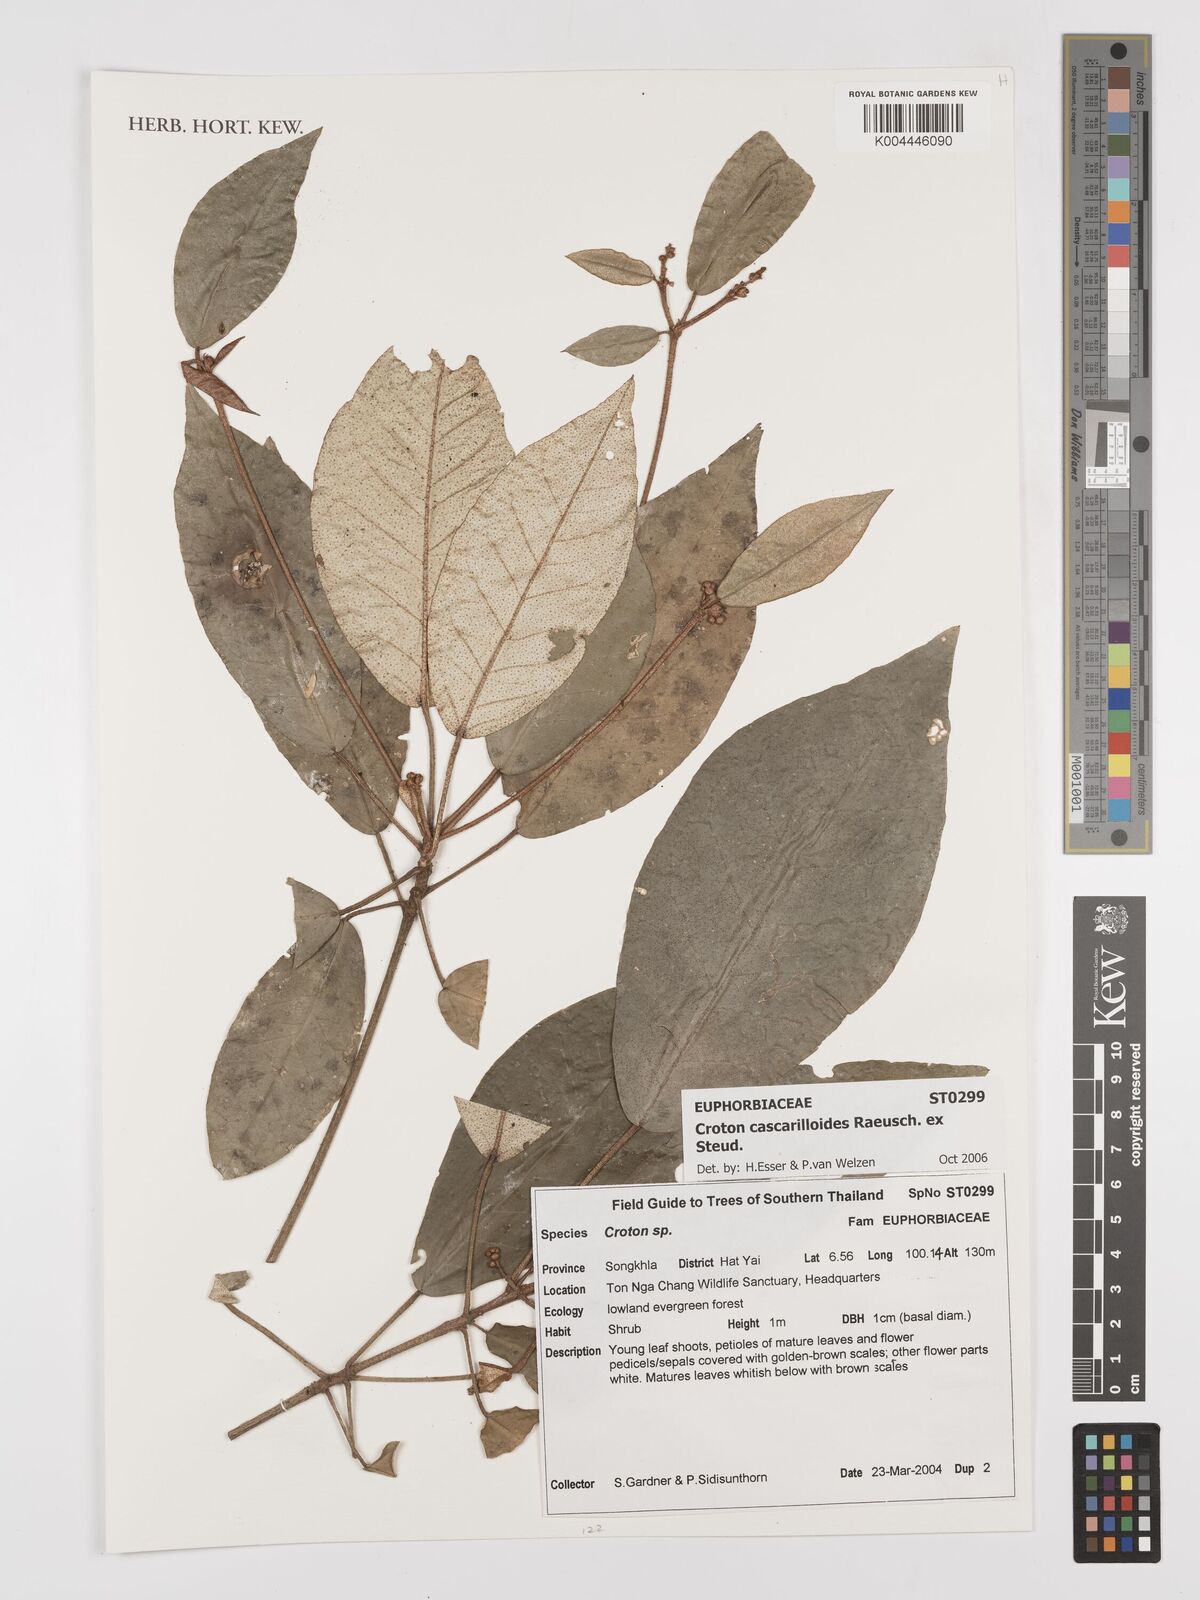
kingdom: Plantae
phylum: Tracheophyta
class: Magnoliopsida
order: Malpighiales
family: Euphorbiaceae
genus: Croton
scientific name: Croton cascarilloides
